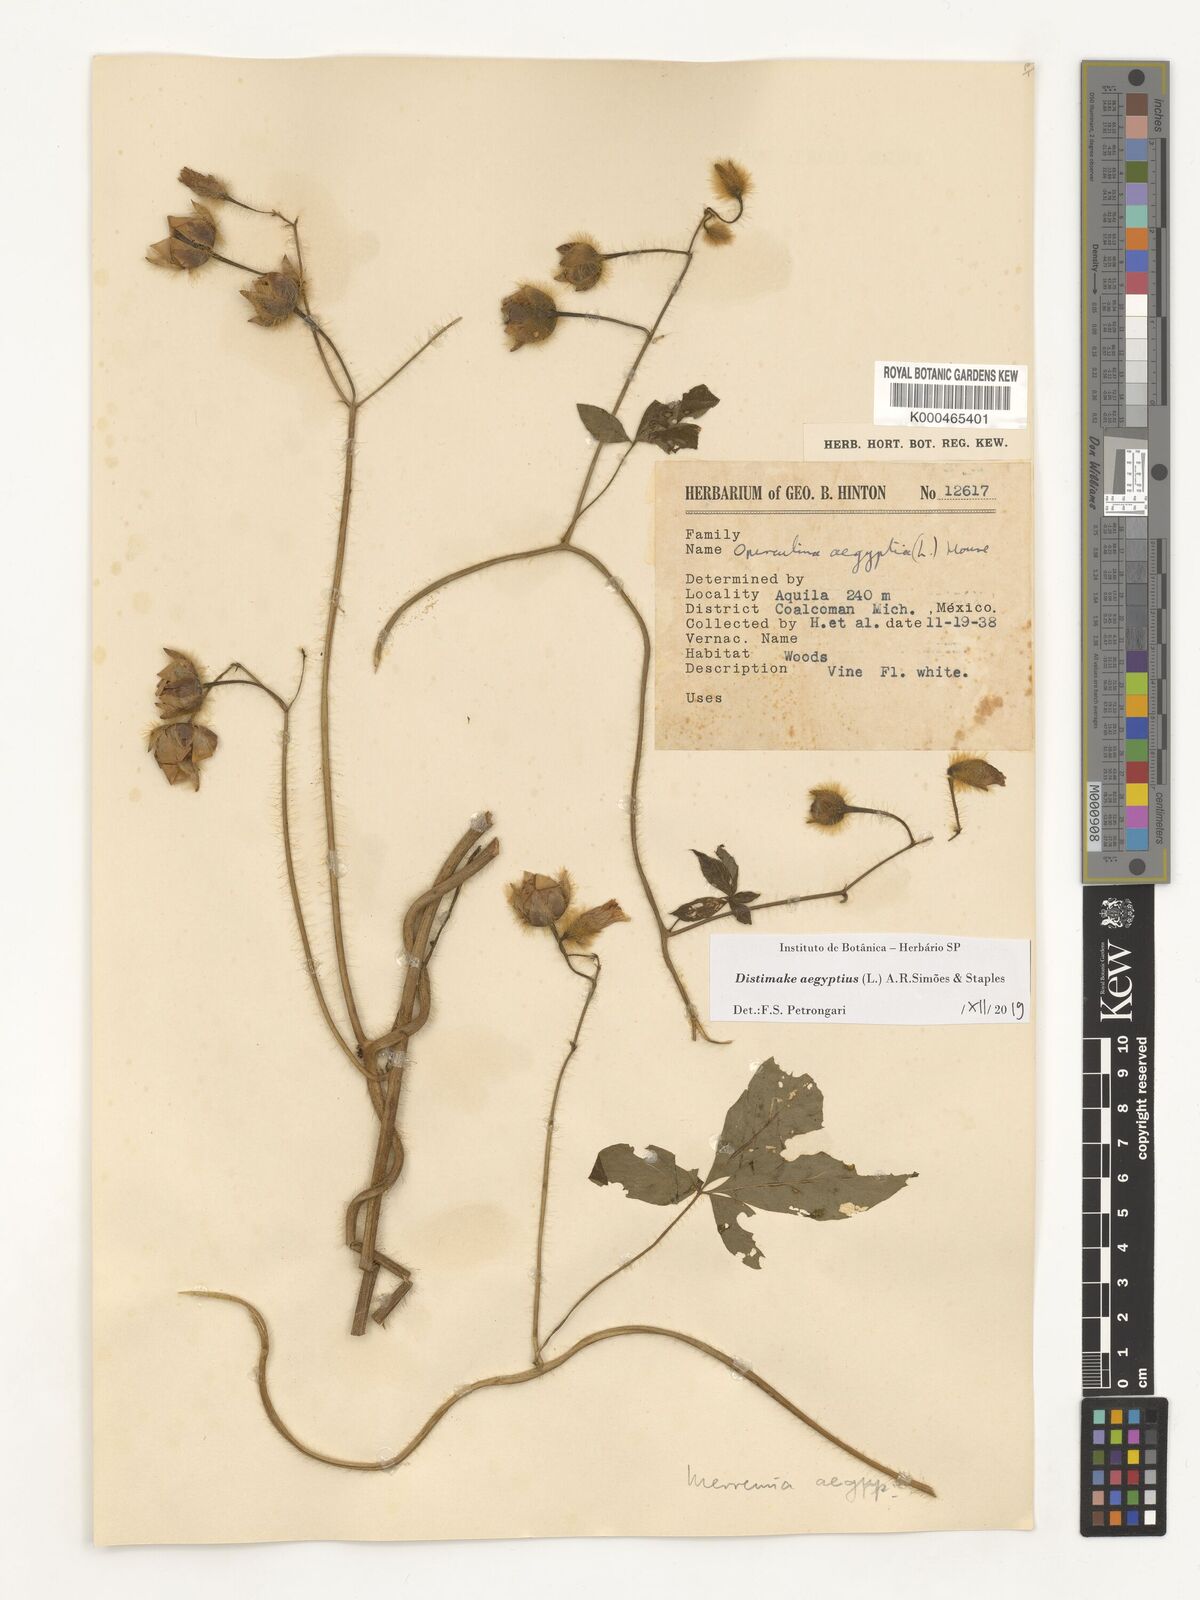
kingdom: Plantae
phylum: Tracheophyta
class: Magnoliopsida
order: Solanales
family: Convolvulaceae
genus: Distimake
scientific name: Distimake aegyptius
